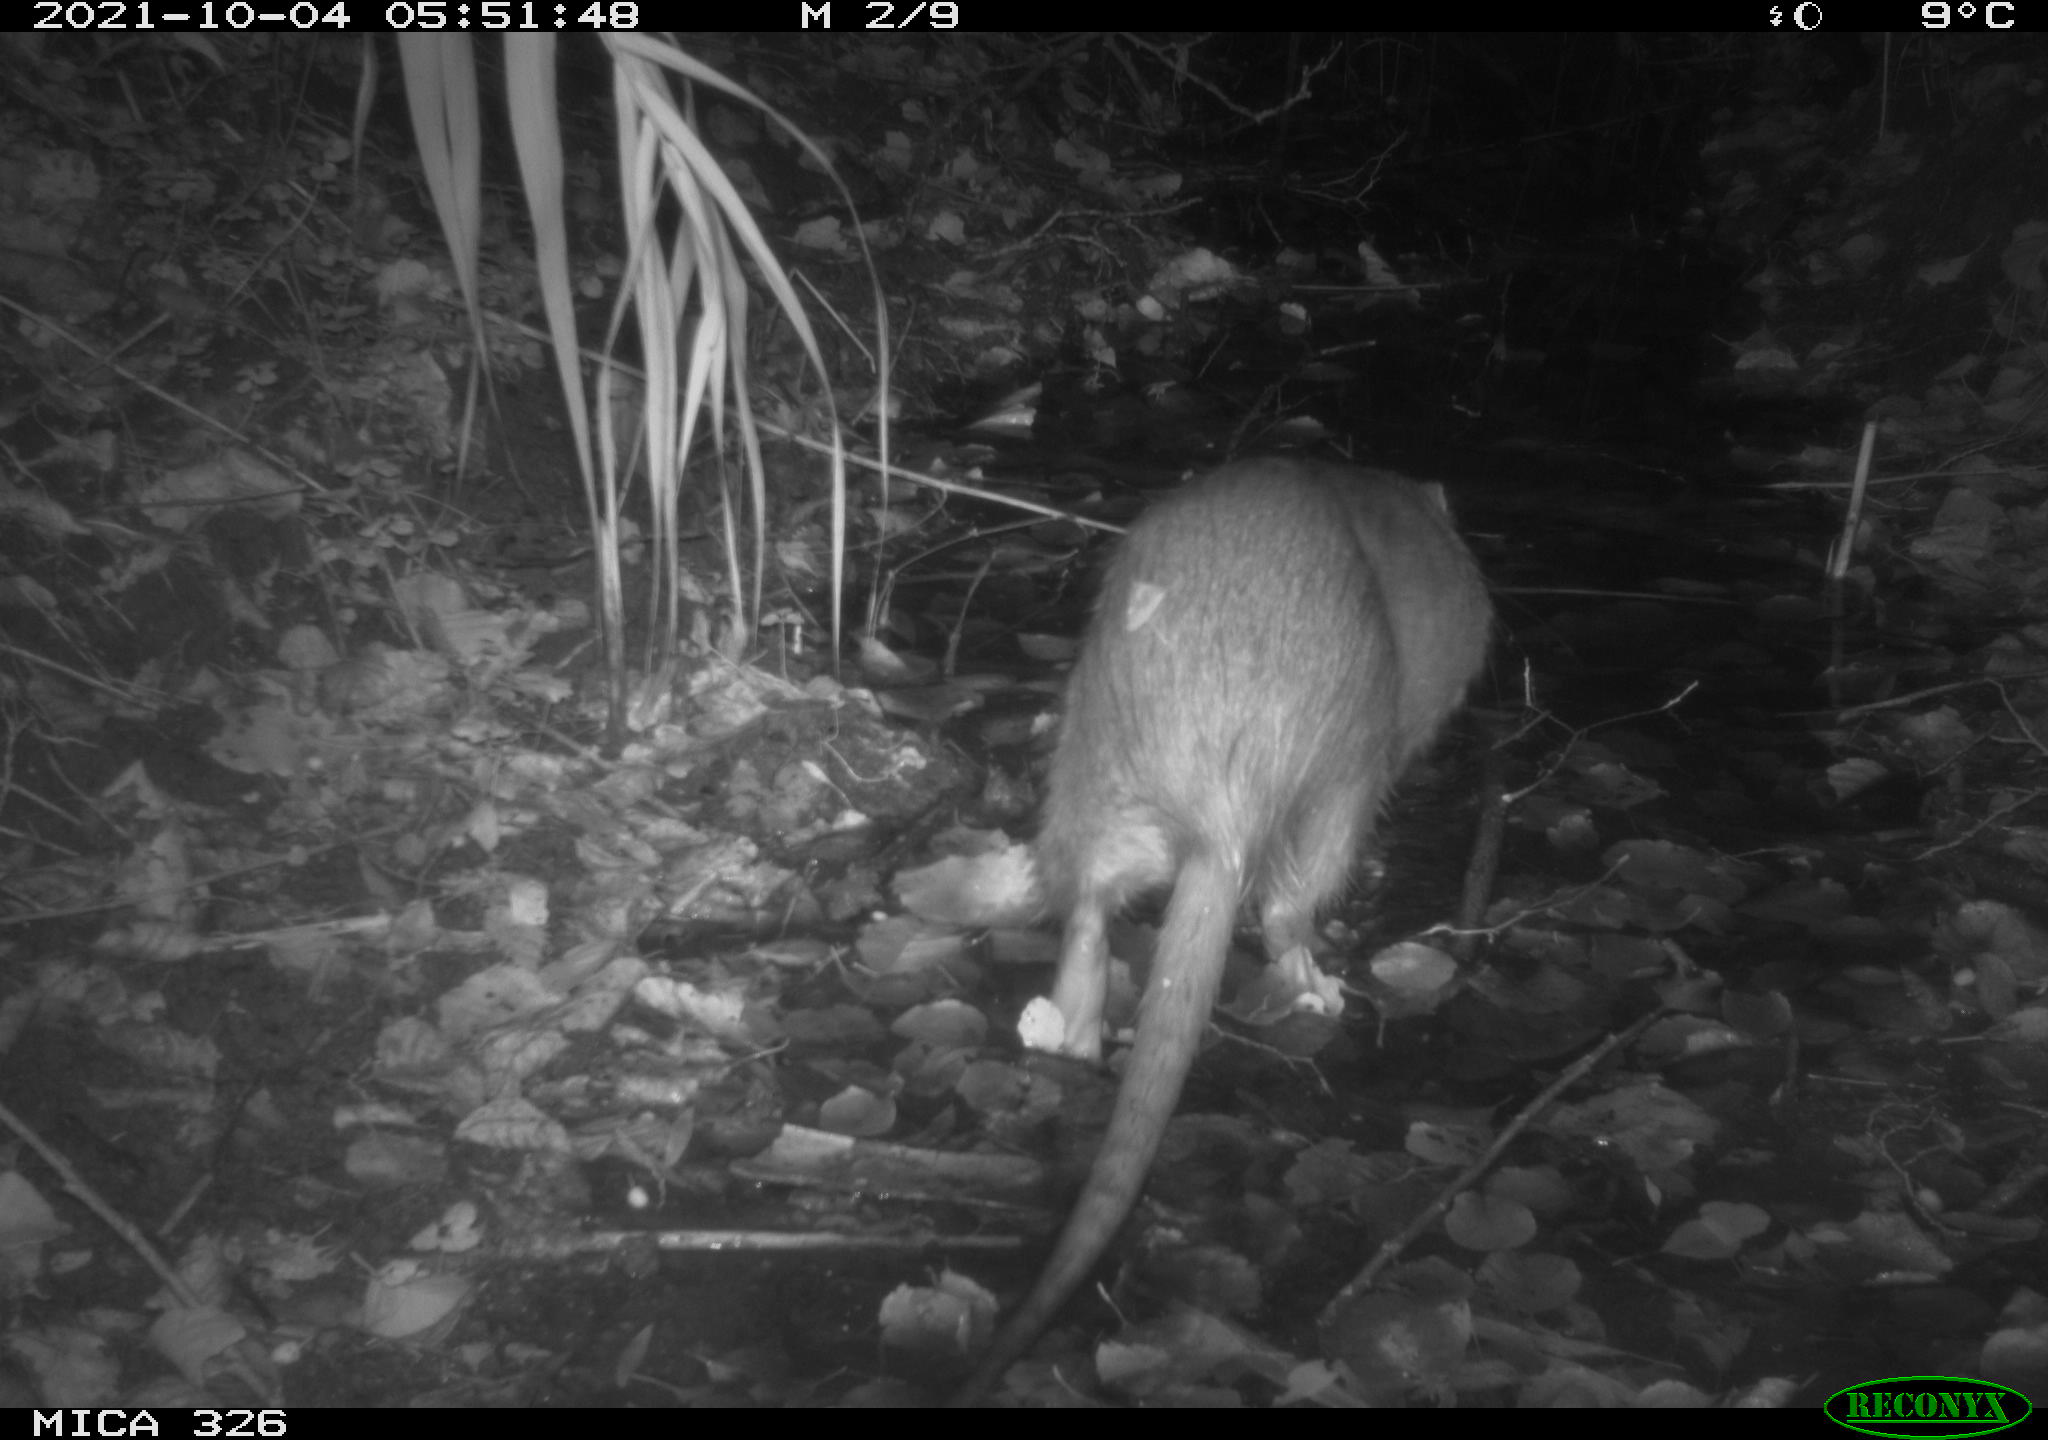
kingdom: Animalia
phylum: Chordata
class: Mammalia
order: Rodentia
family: Myocastoridae
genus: Myocastor
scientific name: Myocastor coypus
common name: Coypu
